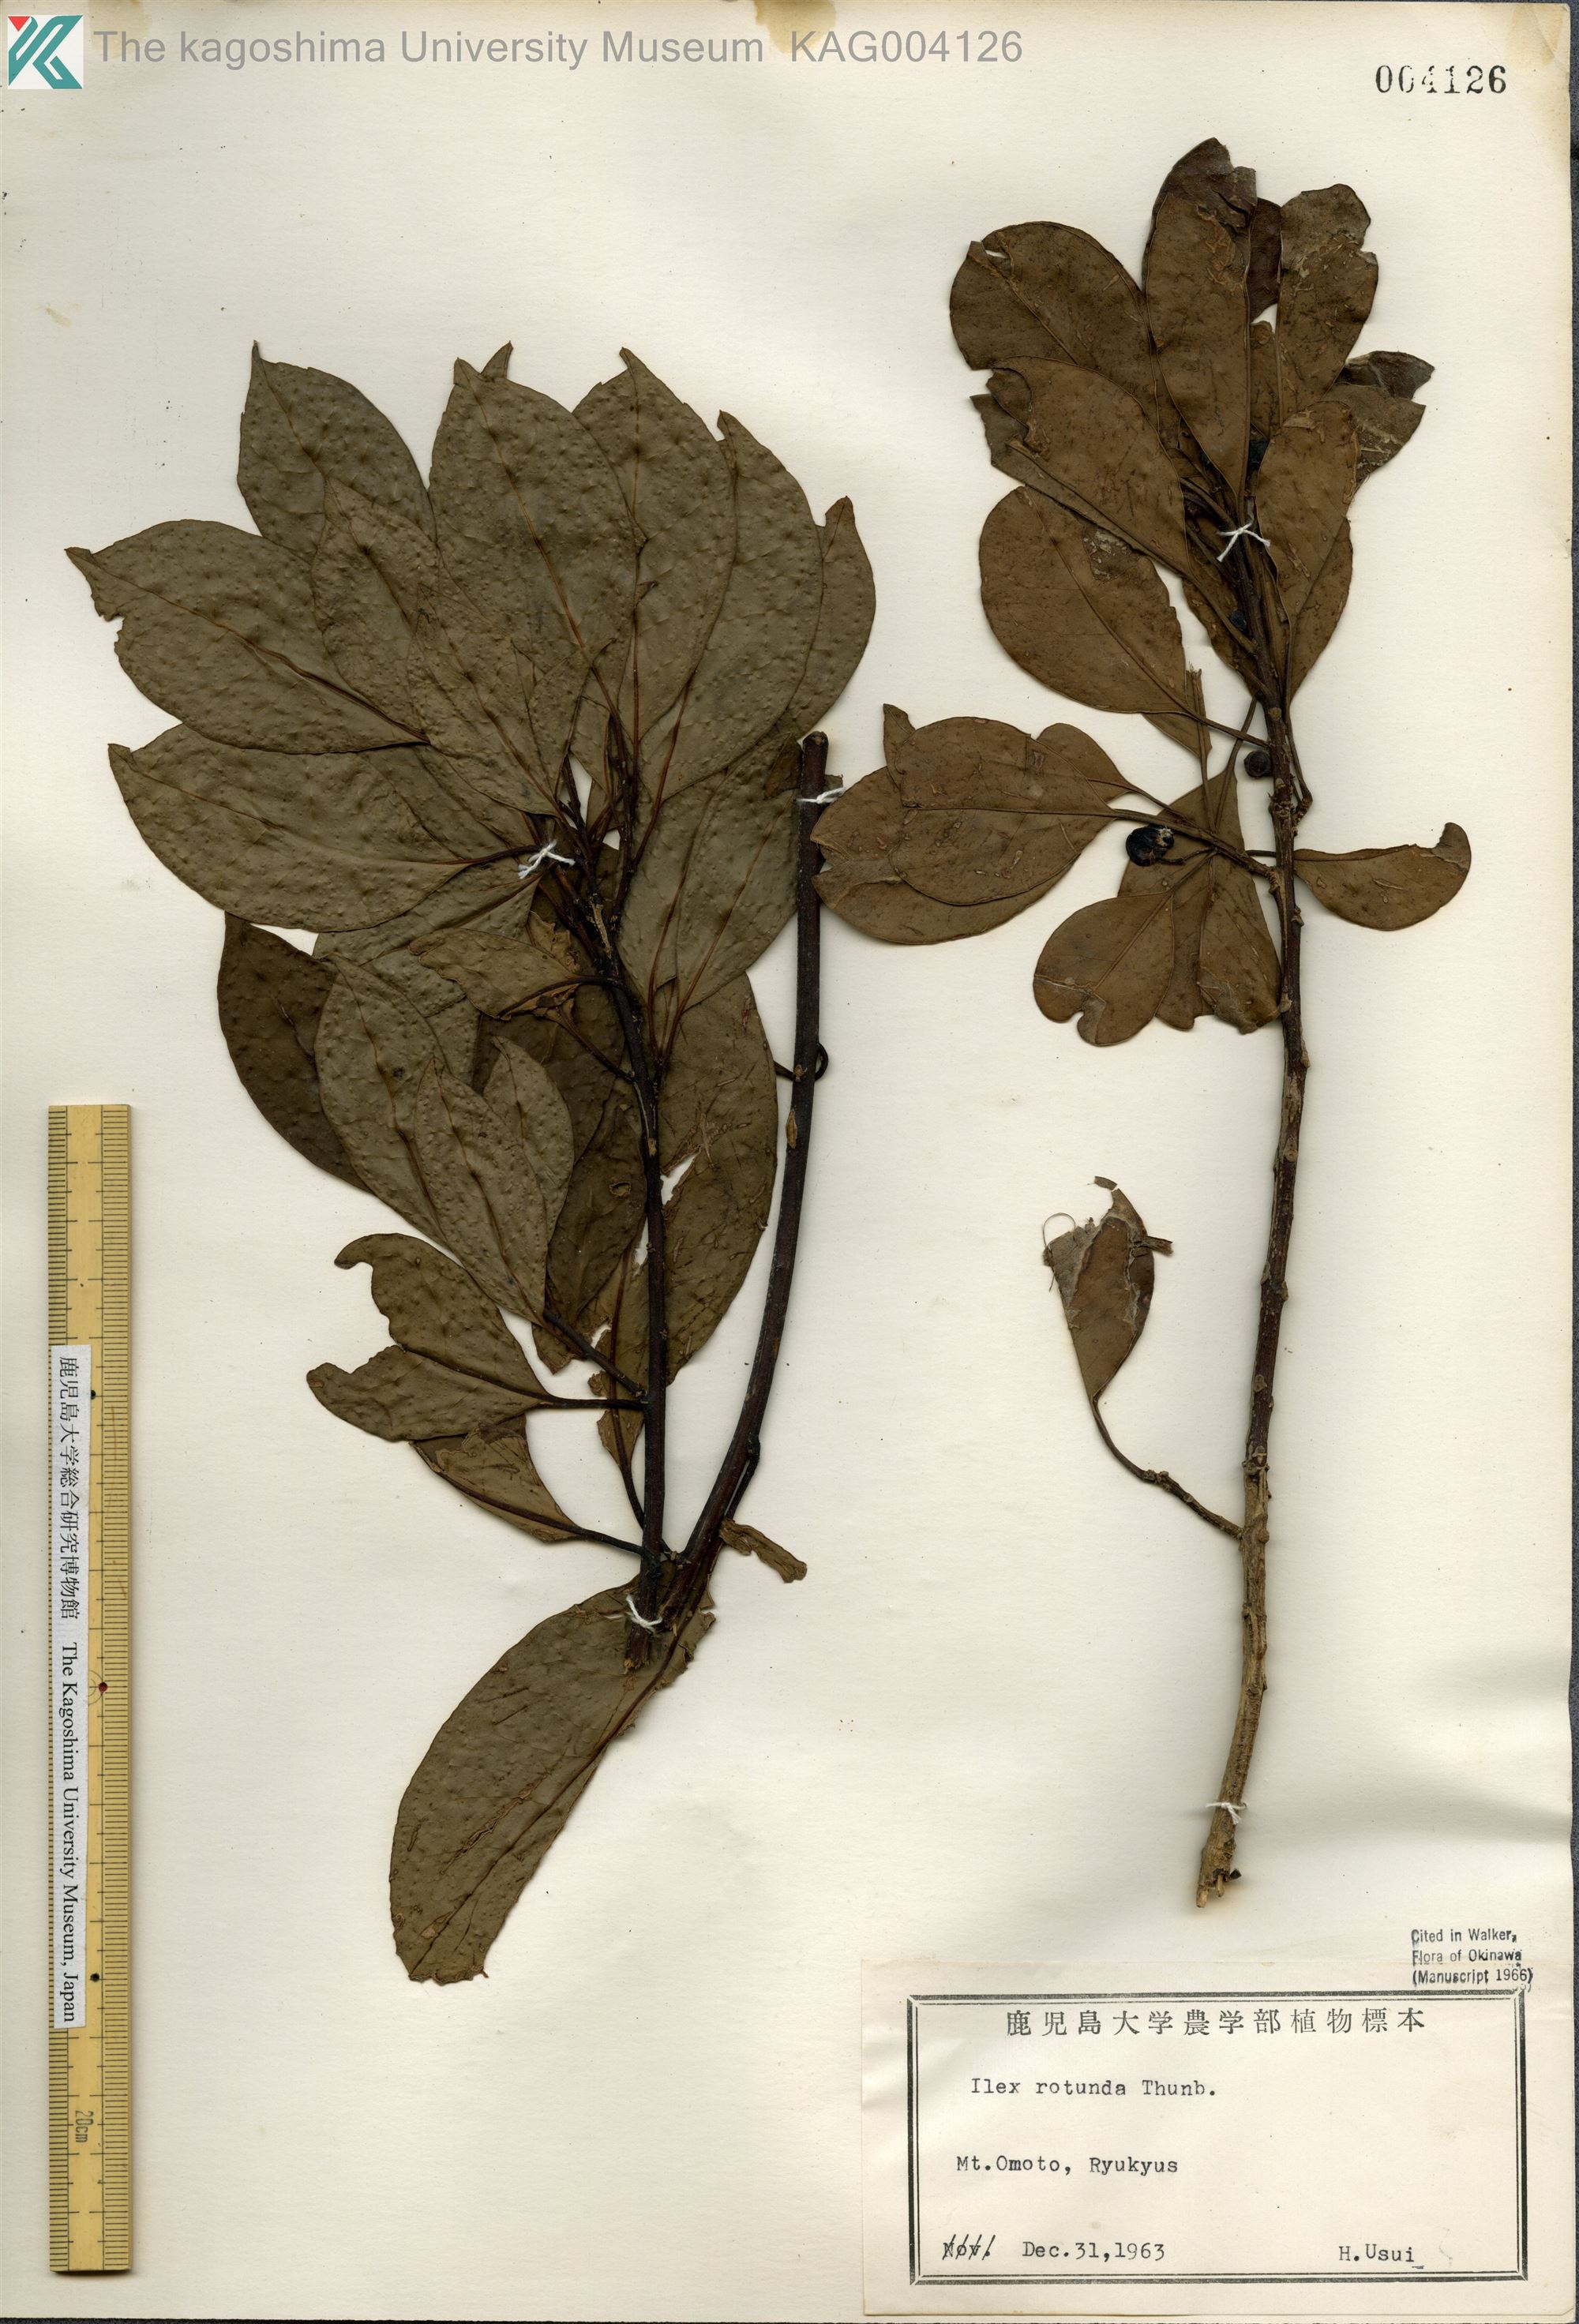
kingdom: Plantae
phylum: Tracheophyta
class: Magnoliopsida
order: Aquifoliales
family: Aquifoliaceae
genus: Ilex
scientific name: Ilex rotunda
